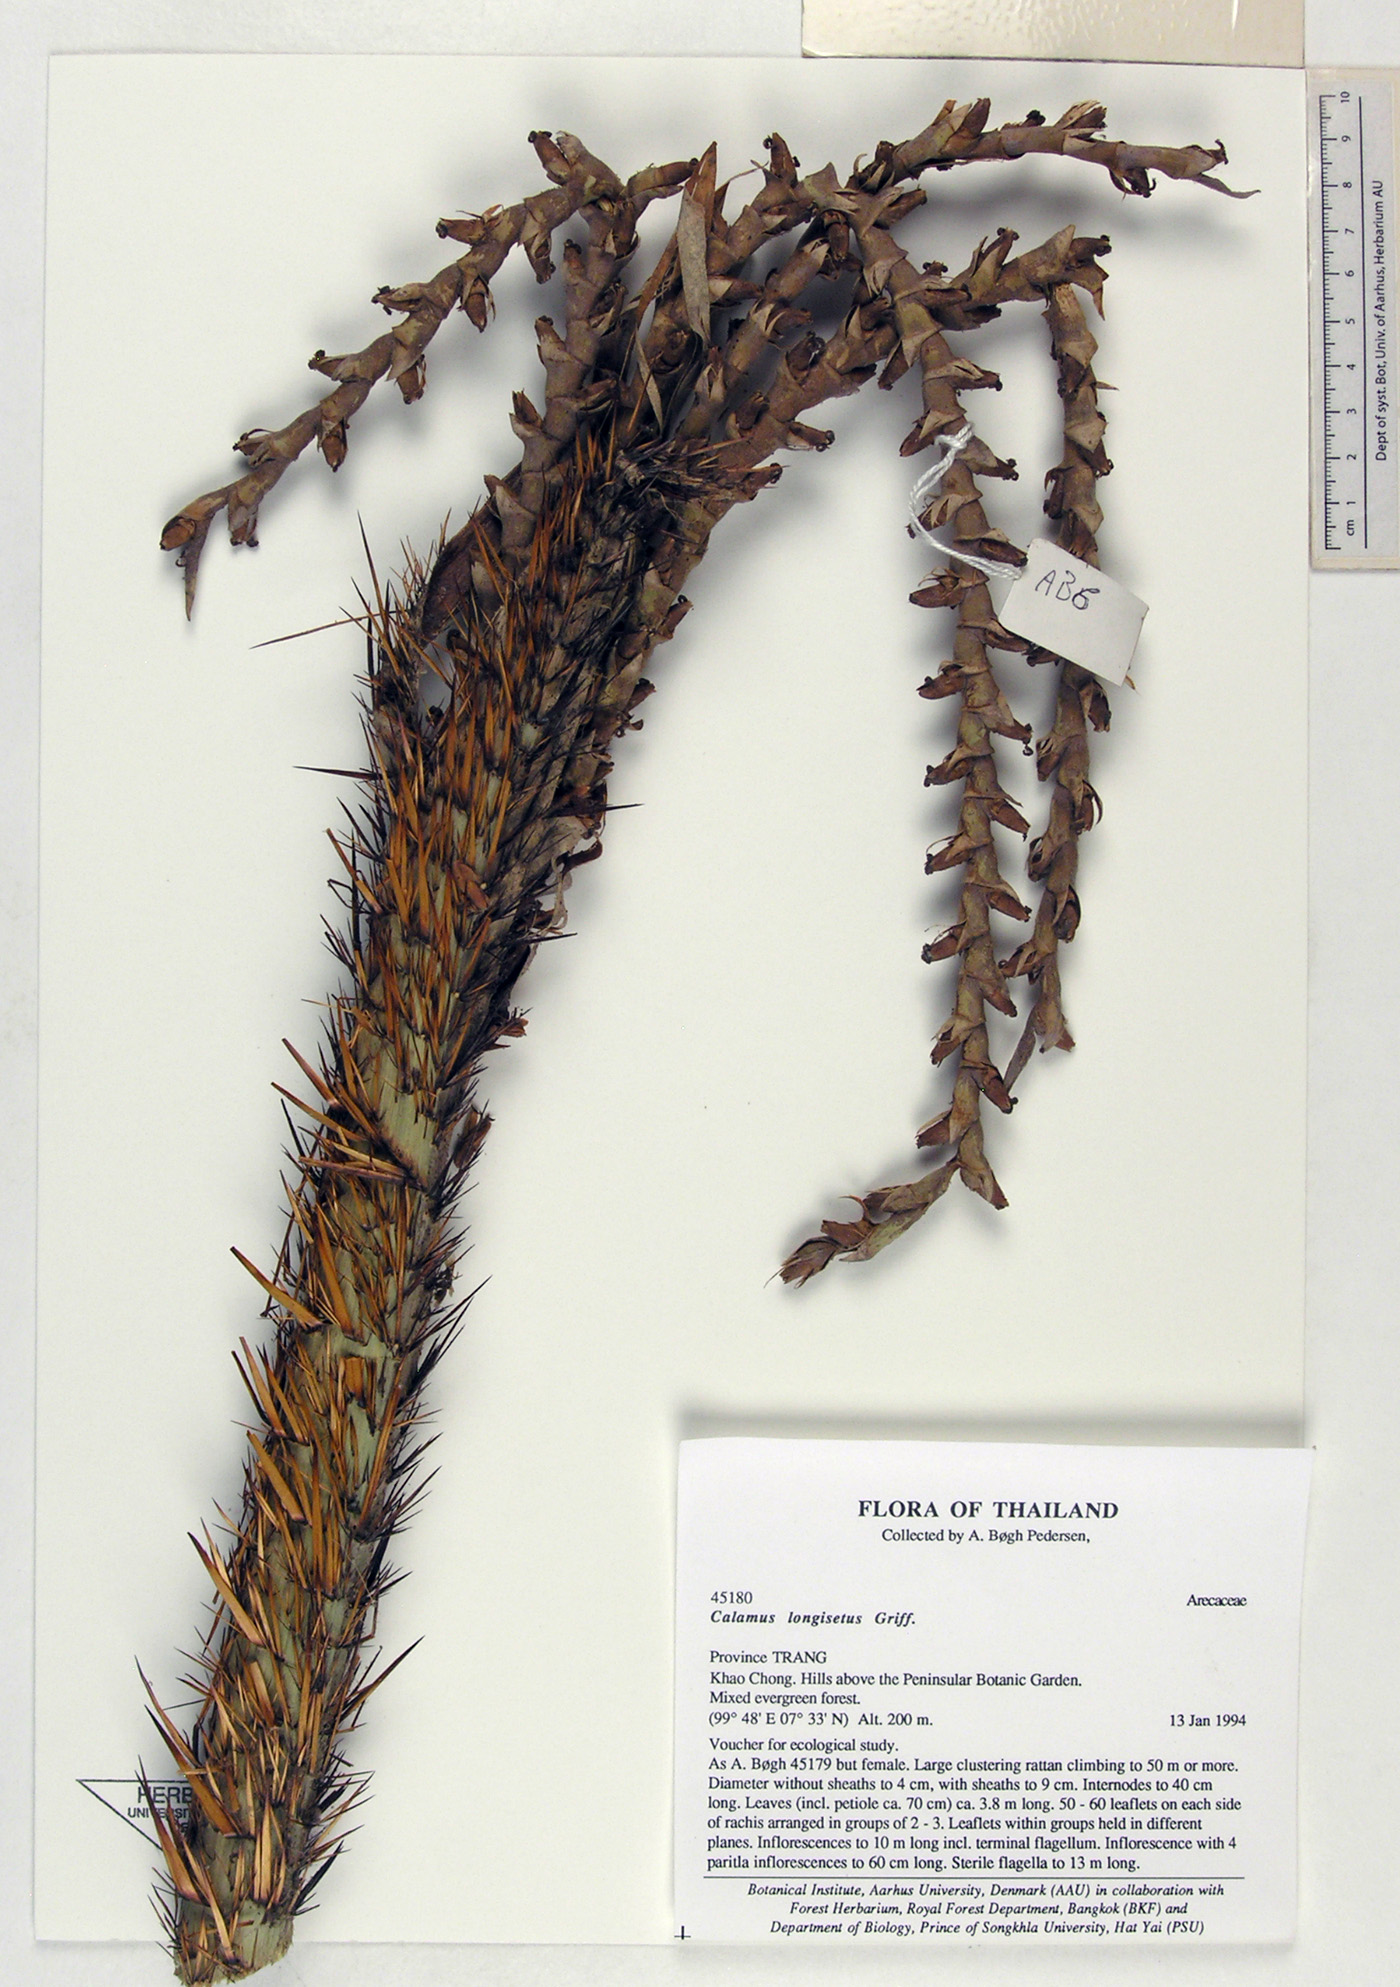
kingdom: Plantae
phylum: Tracheophyta
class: Liliopsida
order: Arecales
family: Arecaceae
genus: Calamus
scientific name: Calamus longisetus
